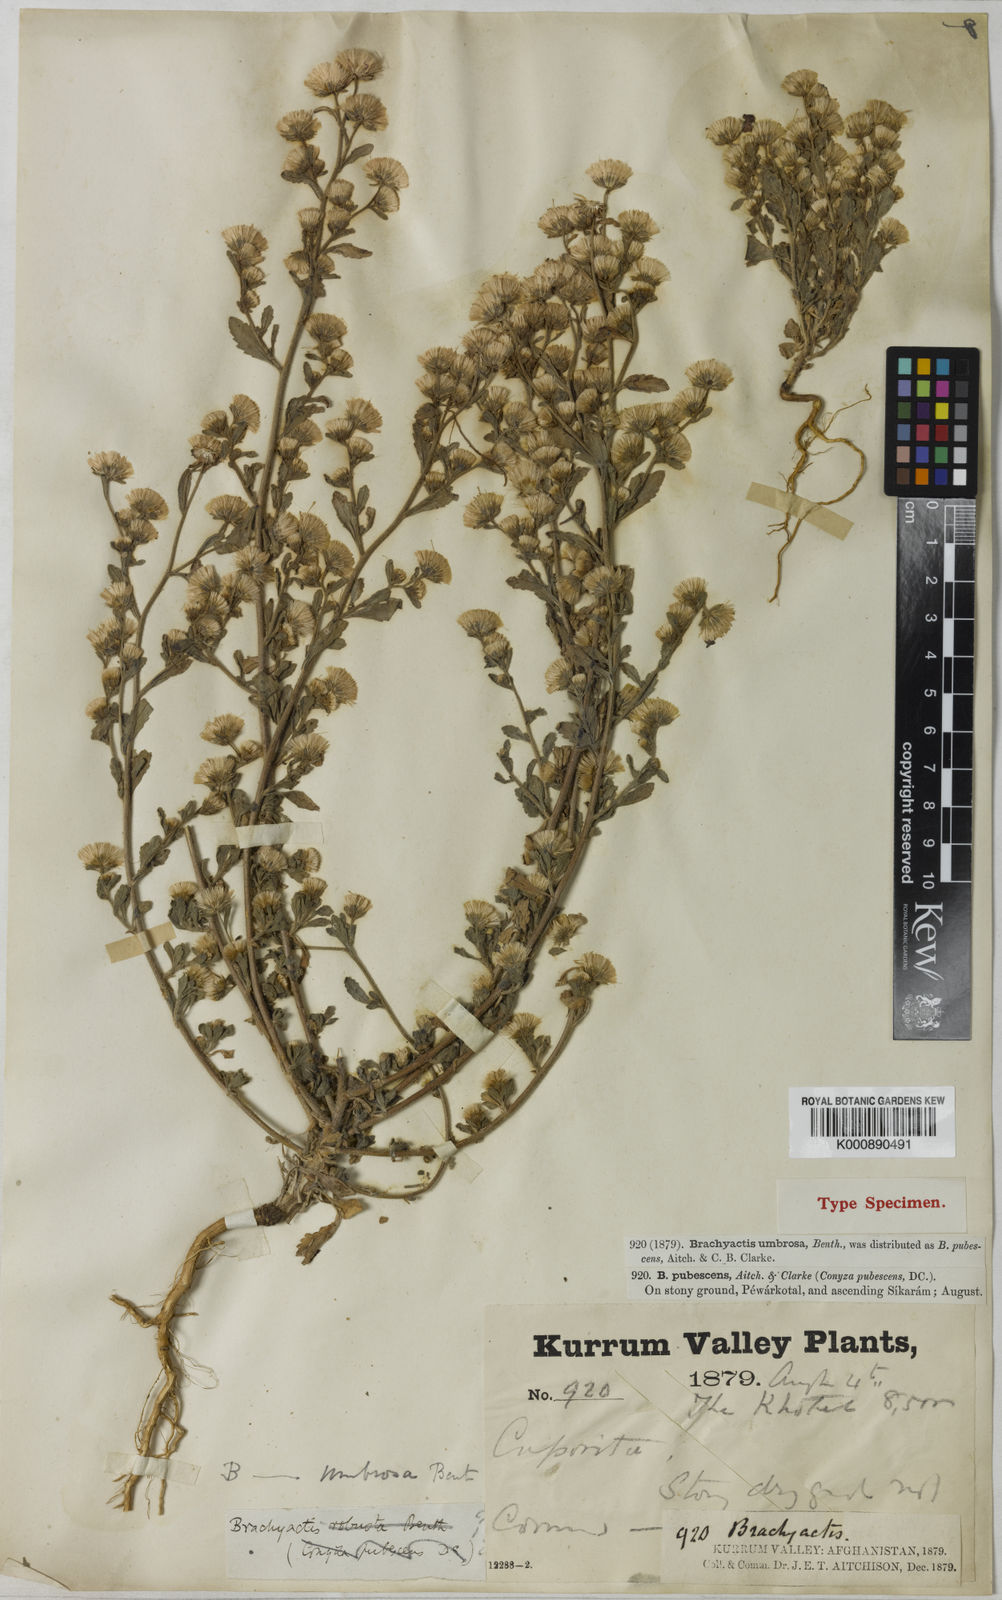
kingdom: Plantae
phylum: Tracheophyta
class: Magnoliopsida
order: Asterales
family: Asteraceae
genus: Neobrachyactis
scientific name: Neobrachyactis roylei
